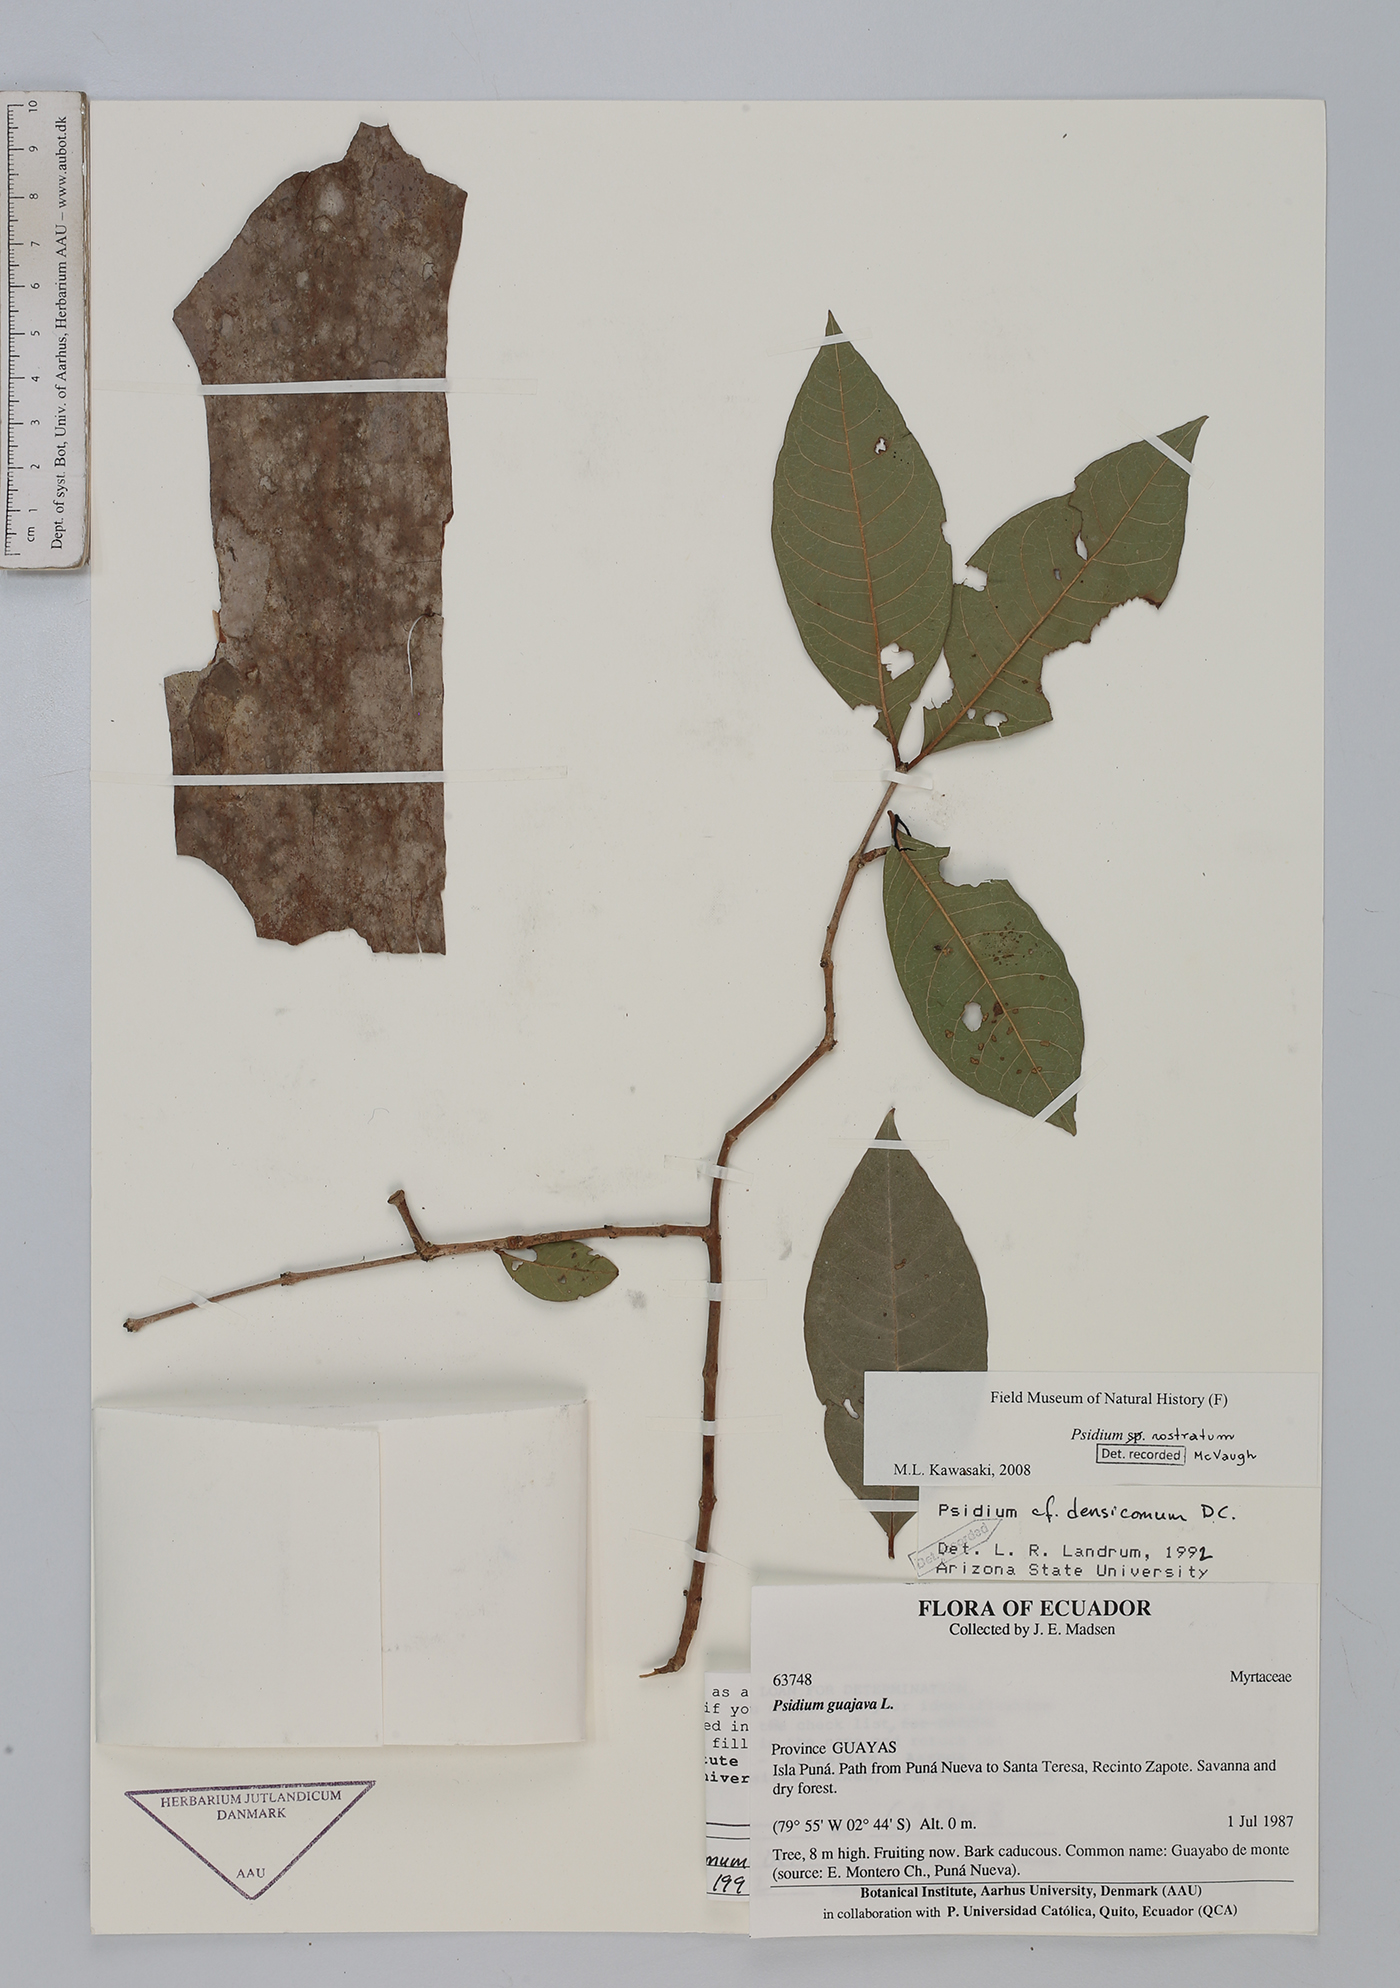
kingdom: Plantae
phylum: Tracheophyta
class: Magnoliopsida
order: Myrtales
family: Myrtaceae
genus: Psidium
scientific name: Psidium rostratum
